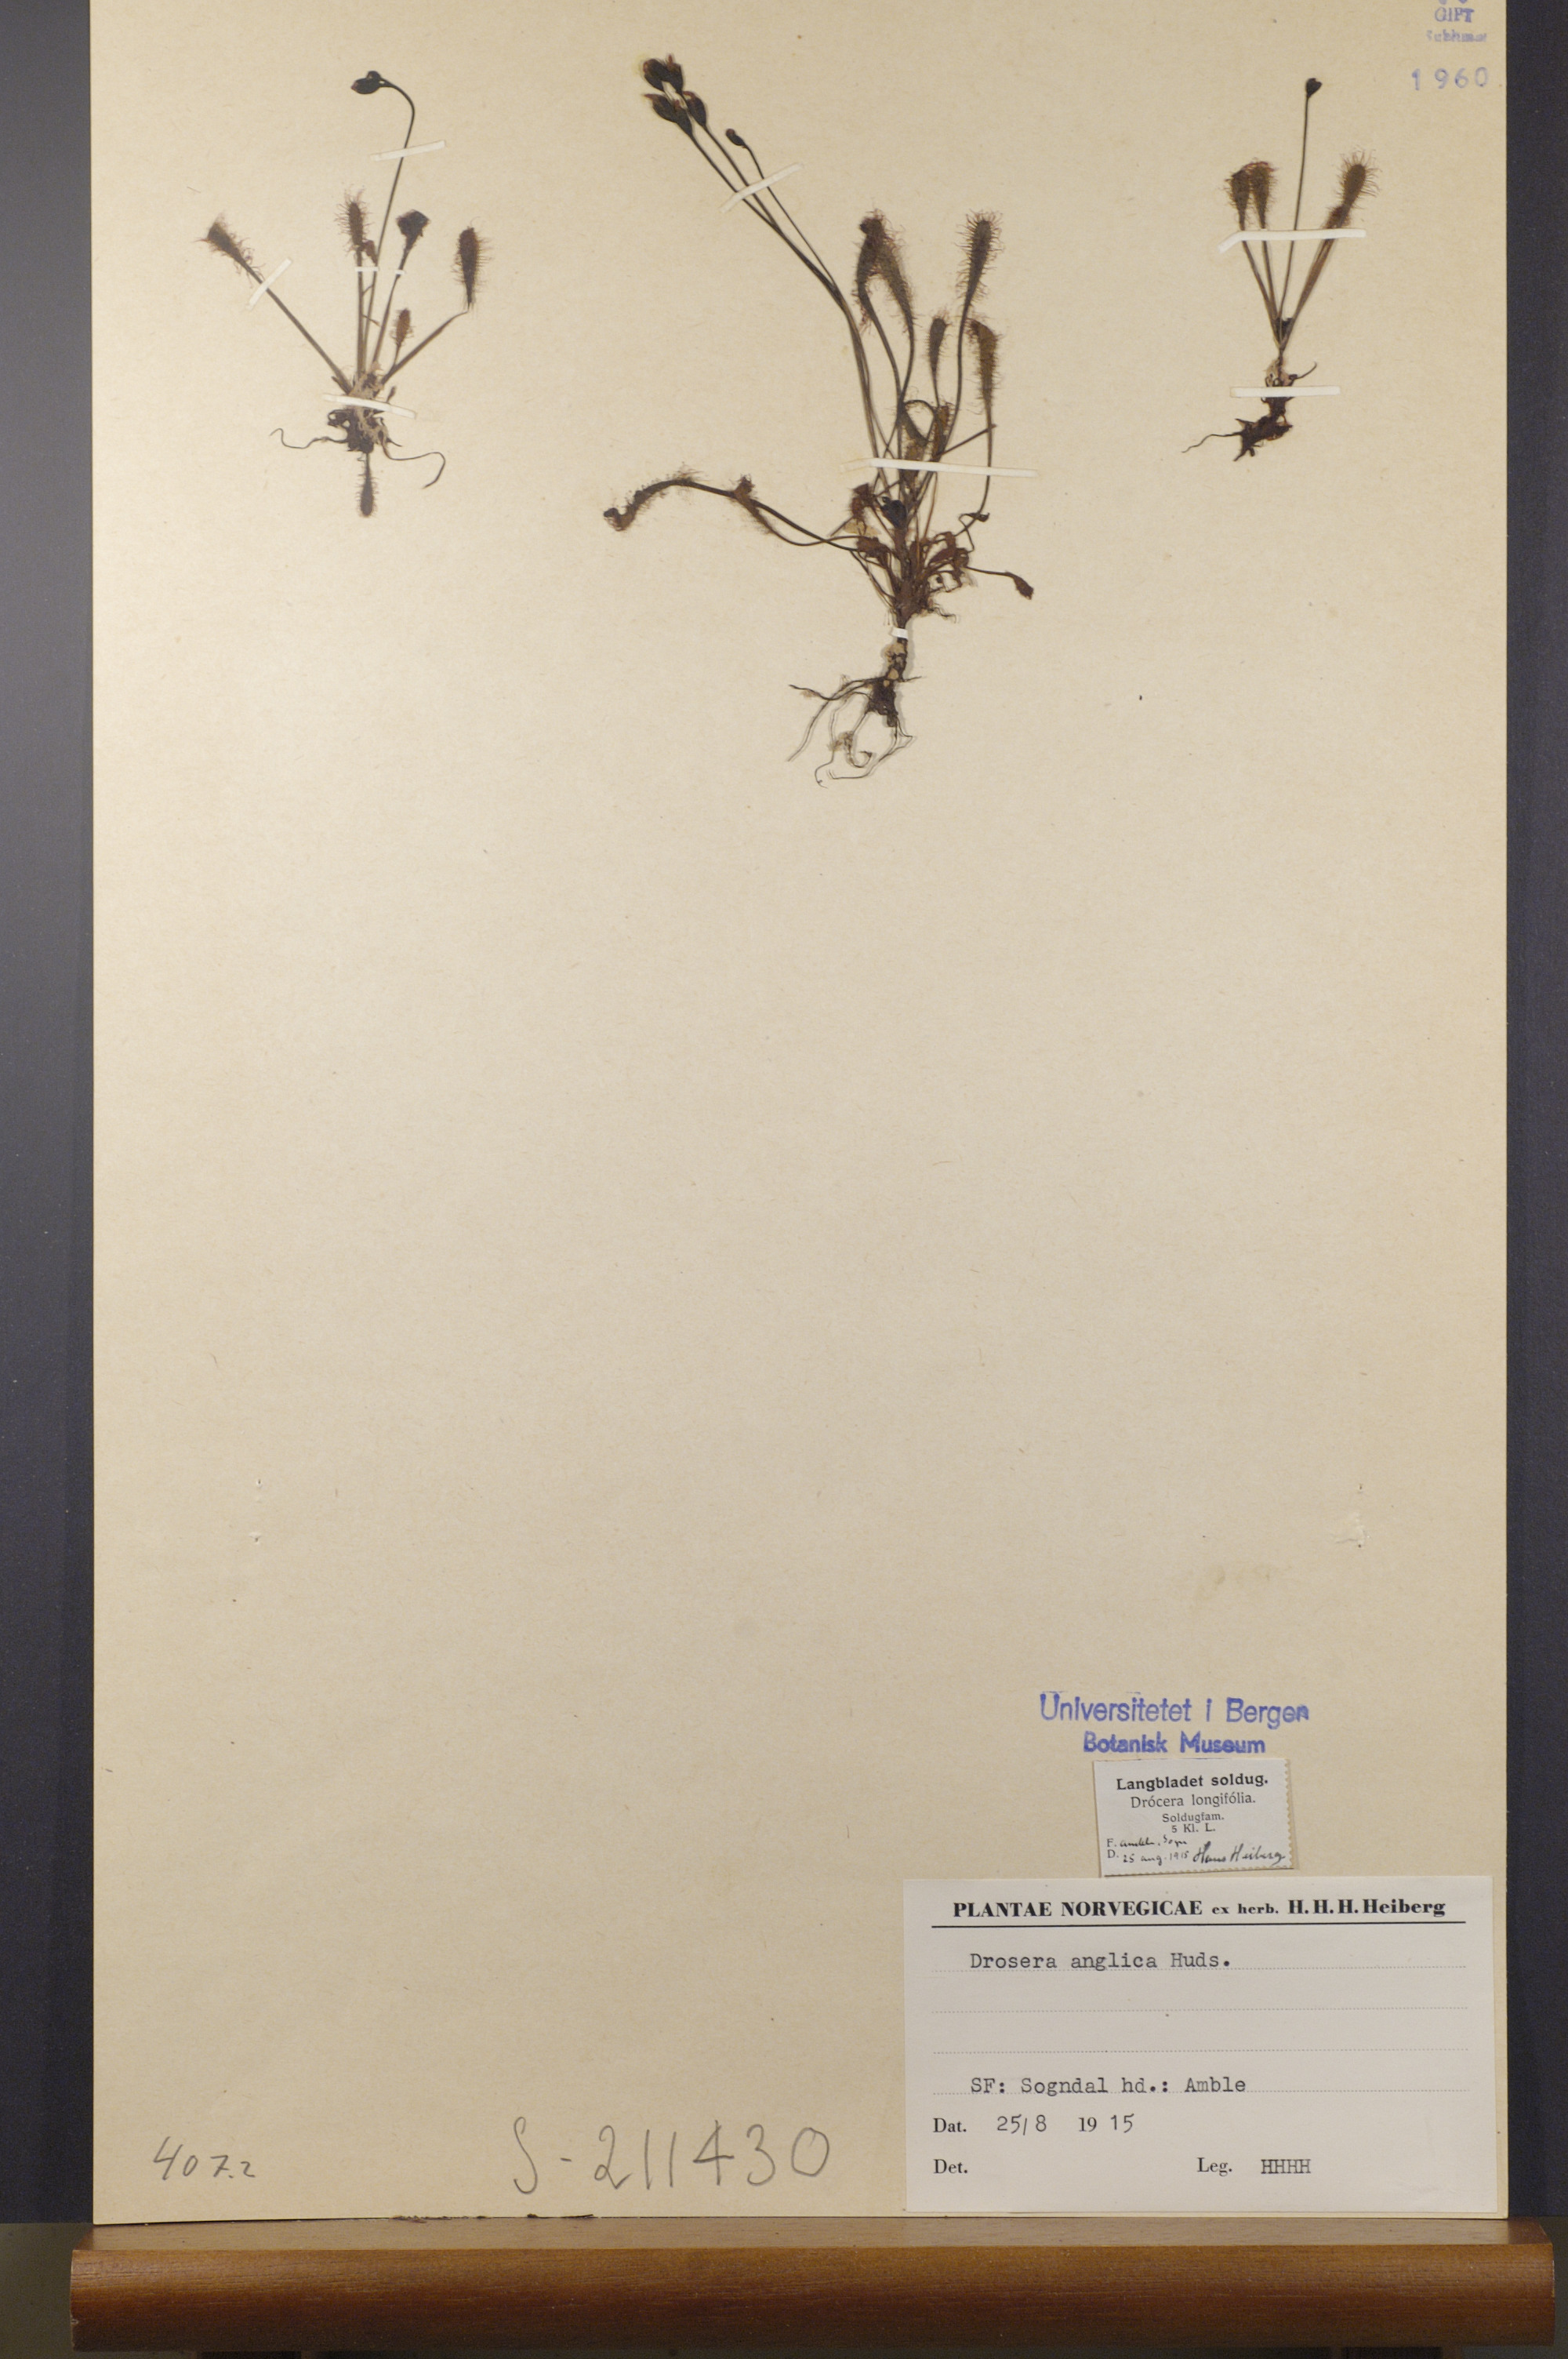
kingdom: Plantae
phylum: Tracheophyta
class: Magnoliopsida
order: Caryophyllales
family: Droseraceae
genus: Drosera
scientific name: Drosera anglica
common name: Great sundew
